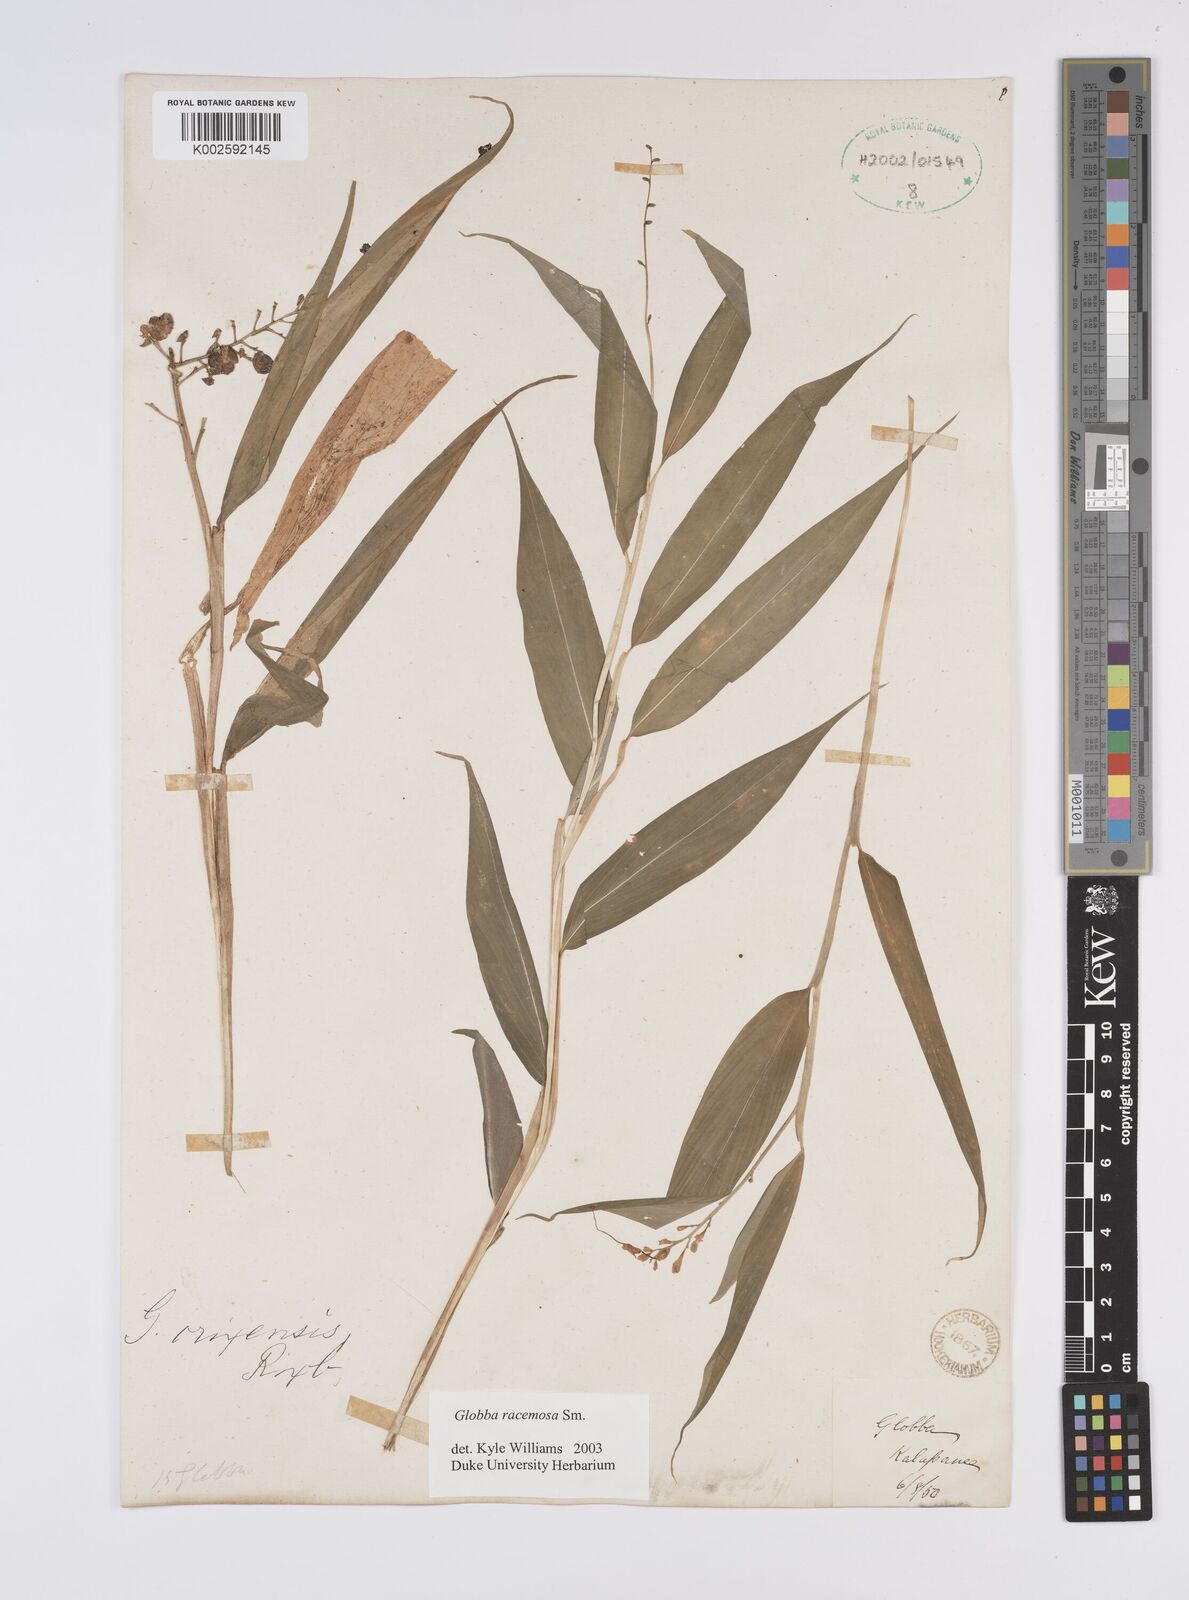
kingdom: Plantae
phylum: Tracheophyta
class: Liliopsida
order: Zingiberales
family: Zingiberaceae
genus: Globba
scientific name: Globba racemosa
